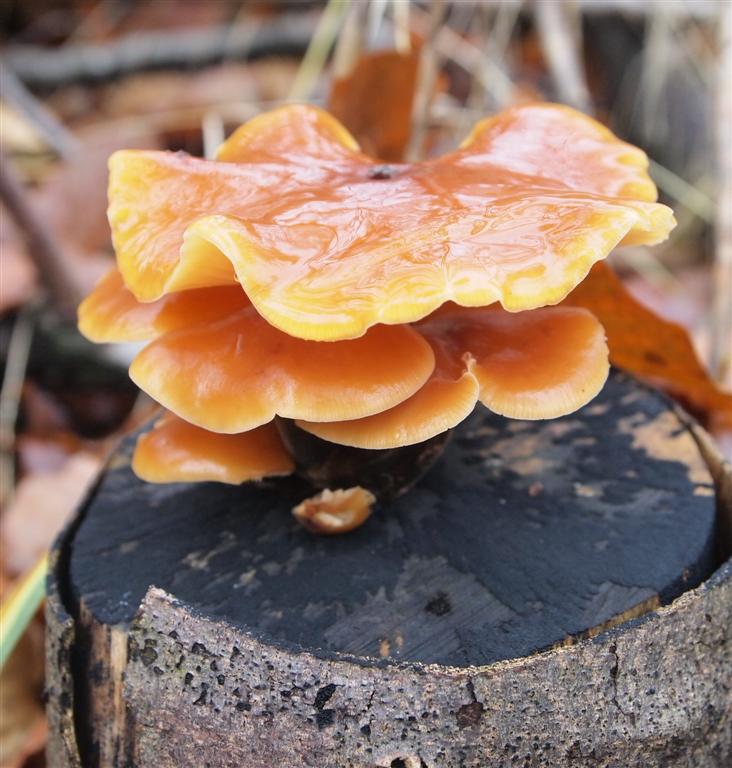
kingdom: Fungi
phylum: Basidiomycota
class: Agaricomycetes
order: Agaricales
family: Physalacriaceae
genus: Flammulina
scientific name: Flammulina velutipes
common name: gul fløjlsfod
